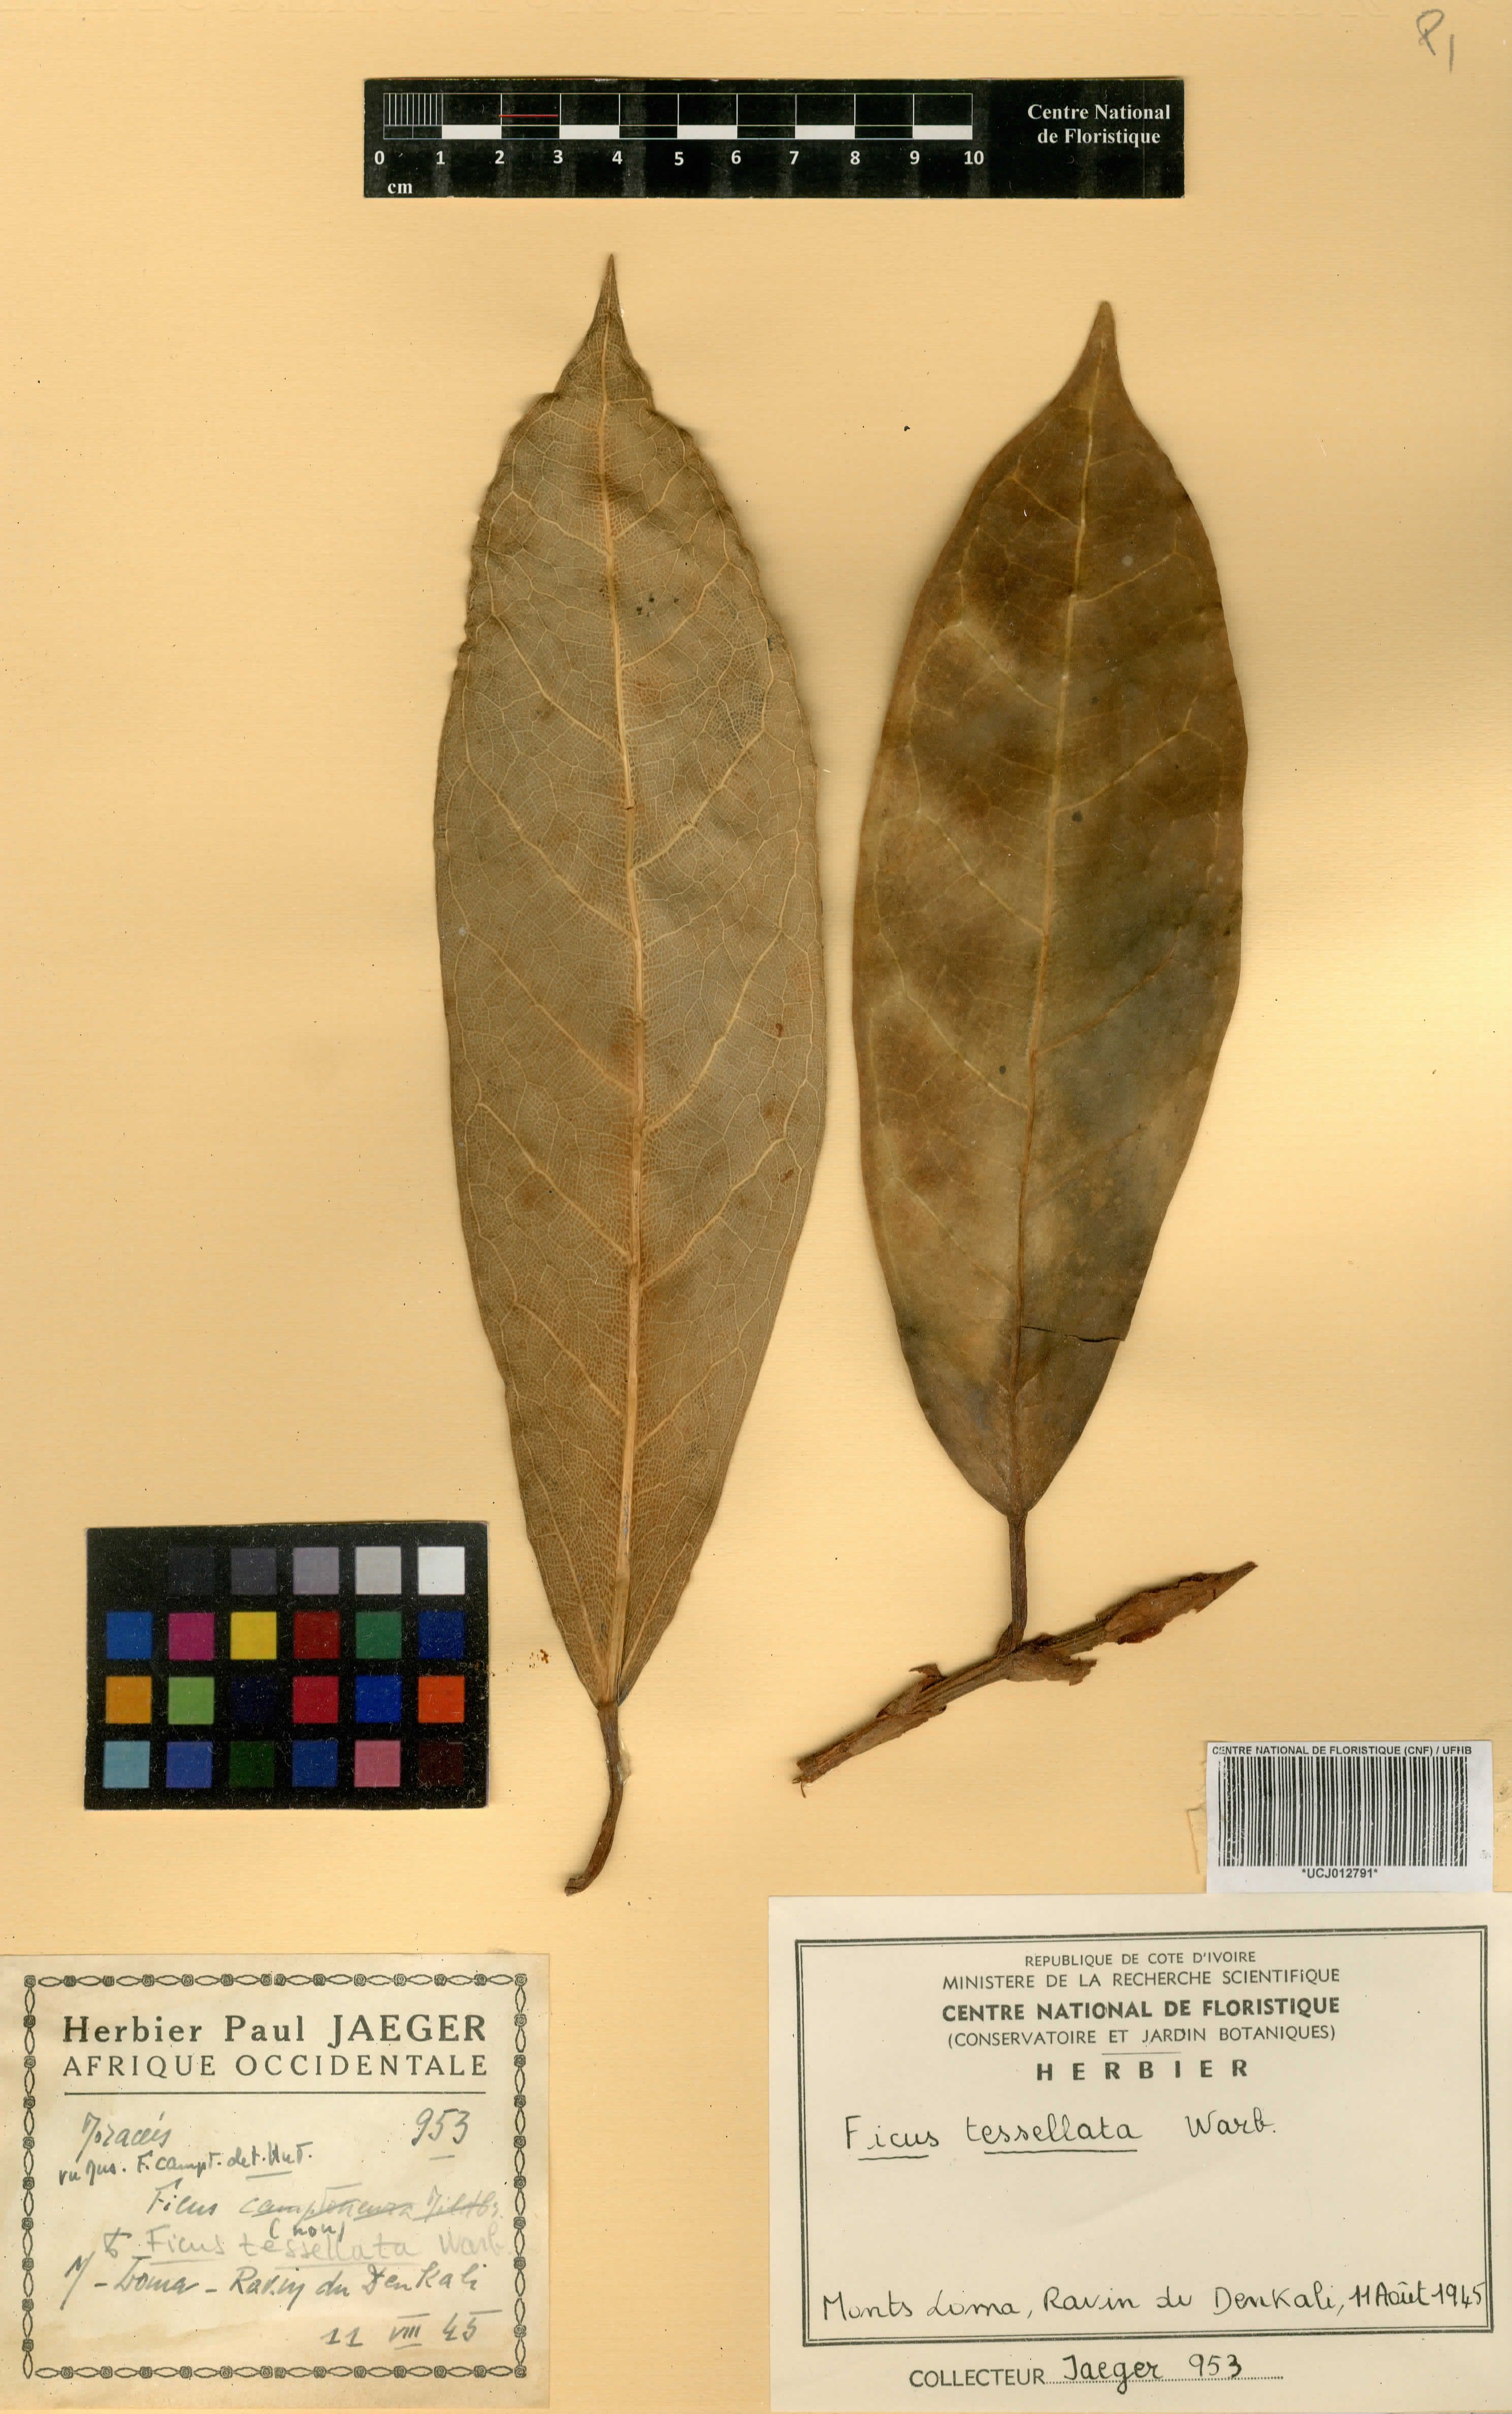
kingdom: Plantae
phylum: Tracheophyta
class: Magnoliopsida
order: Rosales
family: Moraceae
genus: Ficus
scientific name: Ficus tesselata
